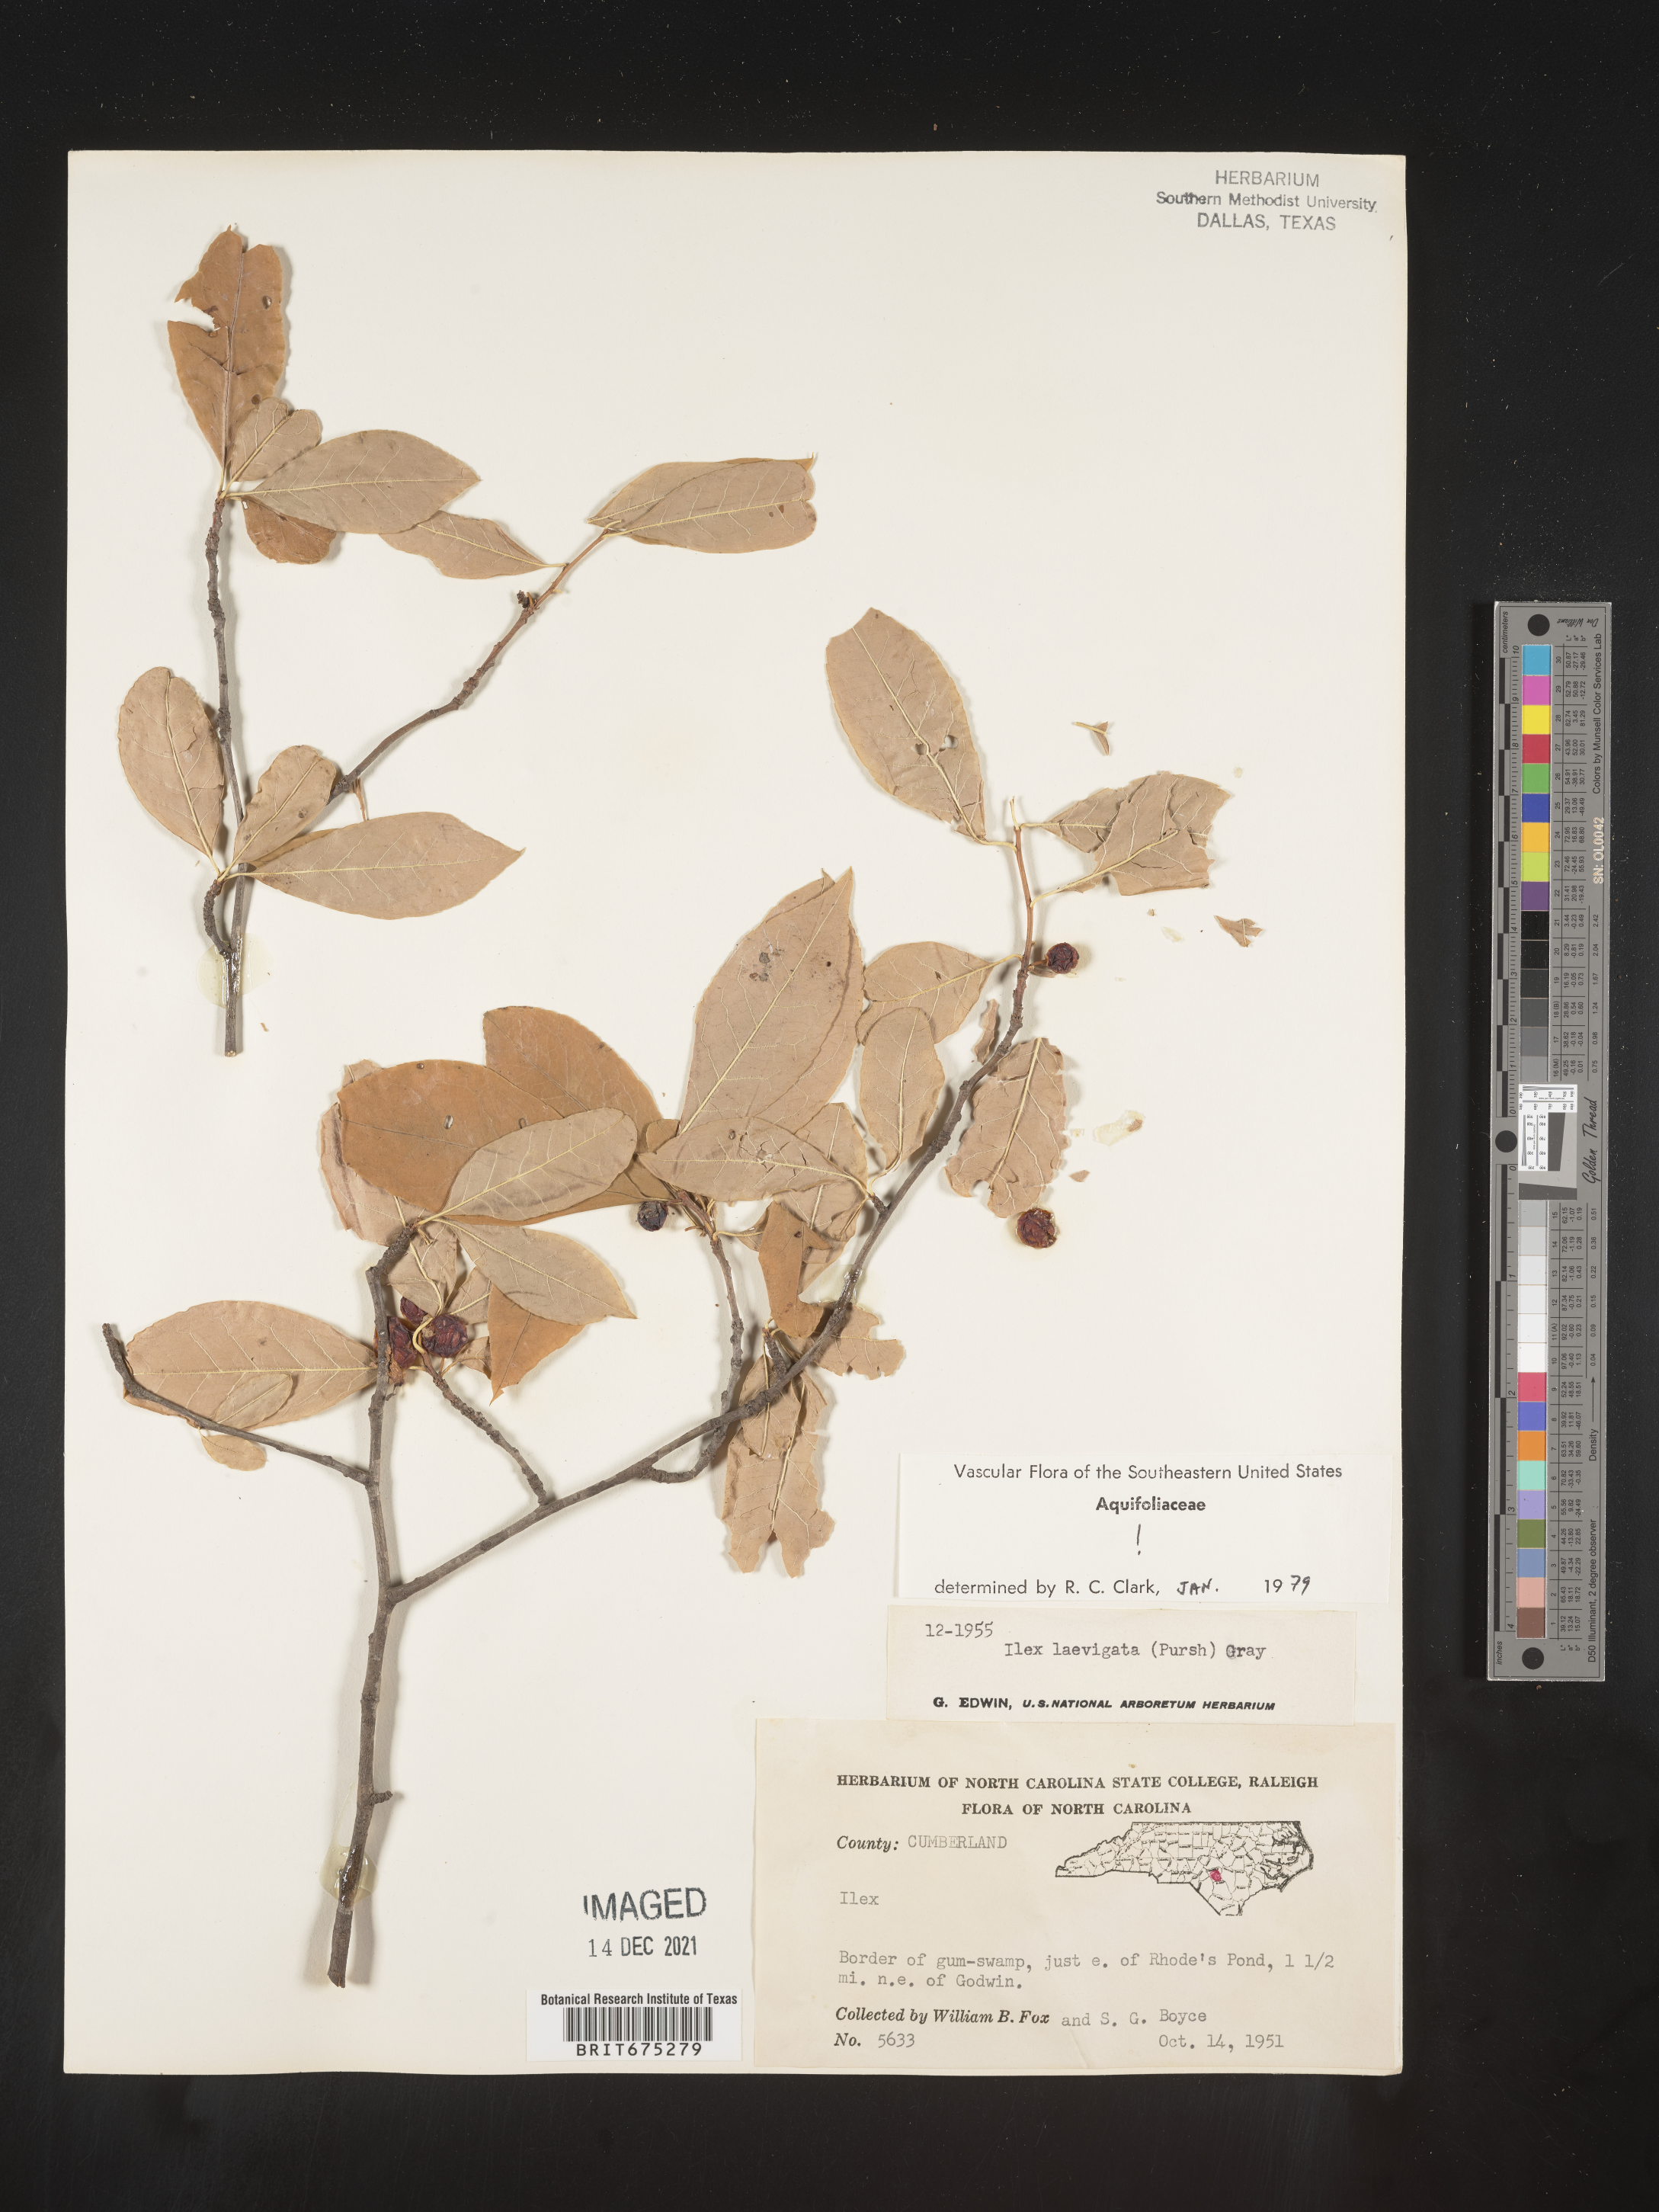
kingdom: Plantae
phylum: Tracheophyta
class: Magnoliopsida
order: Aquifoliales
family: Aquifoliaceae
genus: Ilex
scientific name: Ilex laevigata
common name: Smooth winterberry
